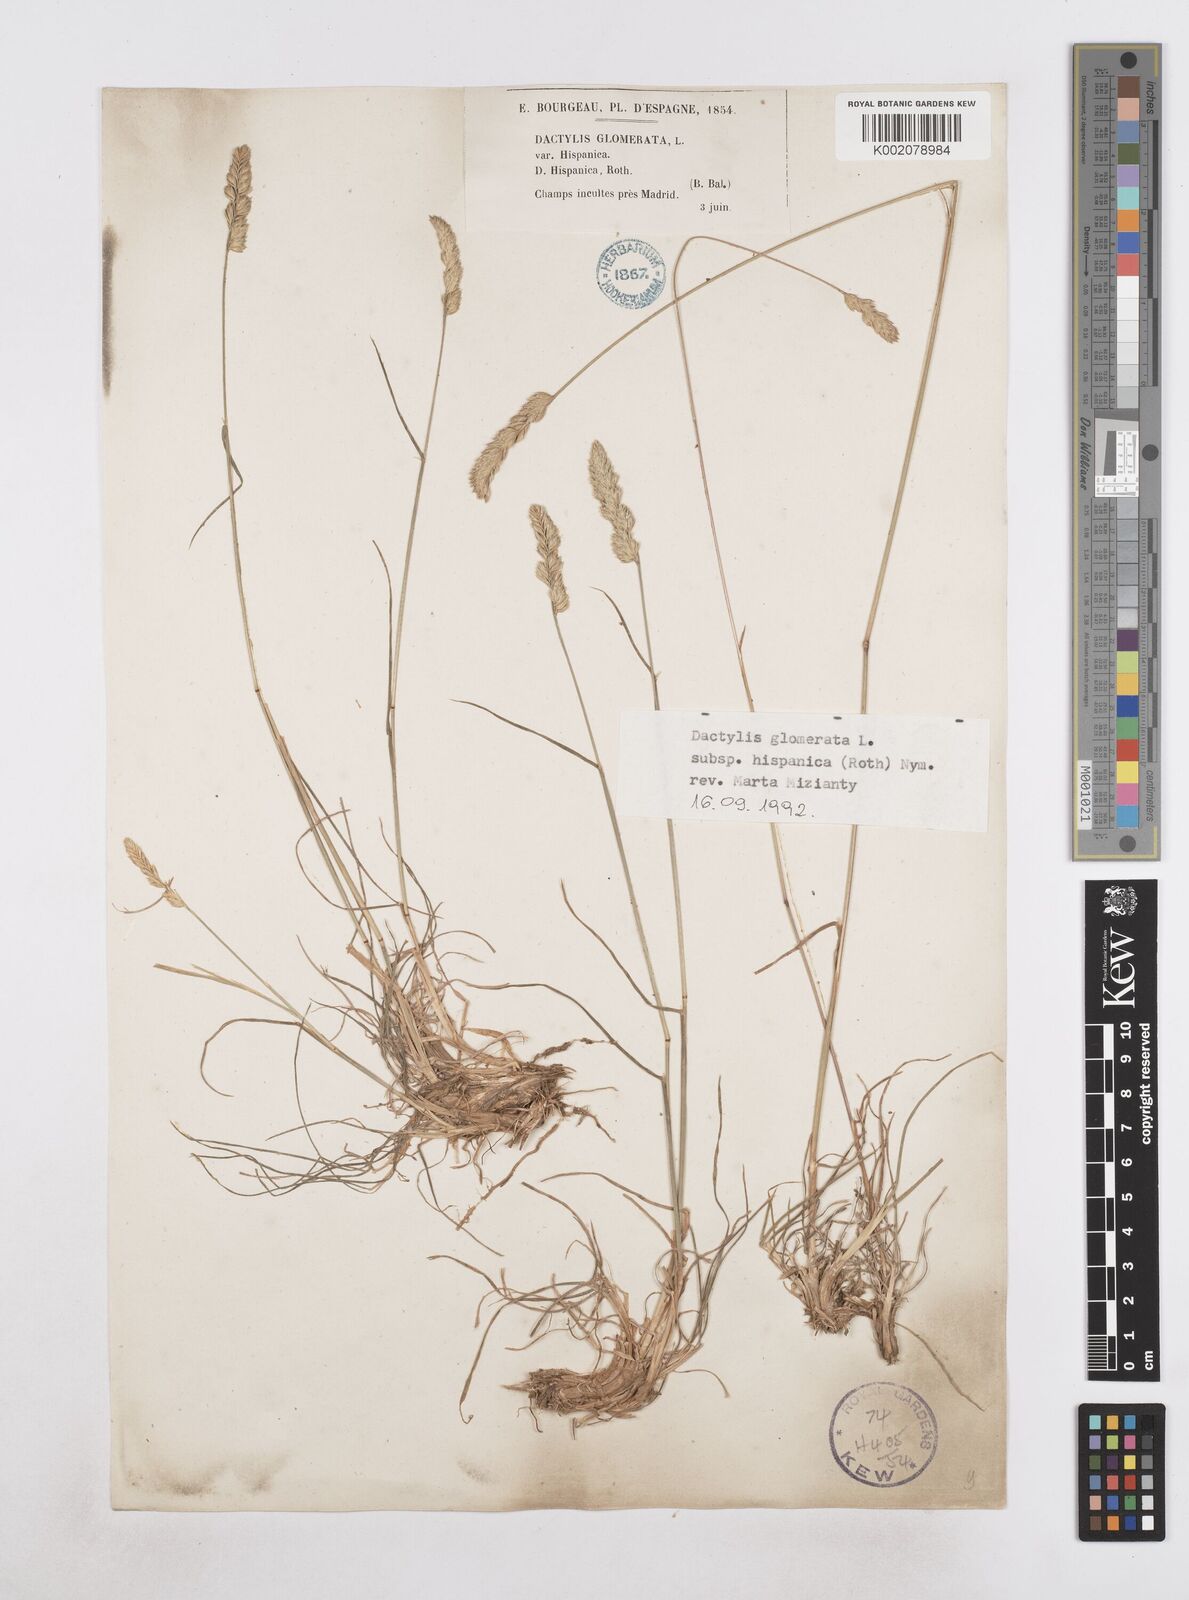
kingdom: Plantae
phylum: Tracheophyta
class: Liliopsida
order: Poales
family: Poaceae
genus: Dactylis
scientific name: Dactylis glomerata
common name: Orchardgrass
